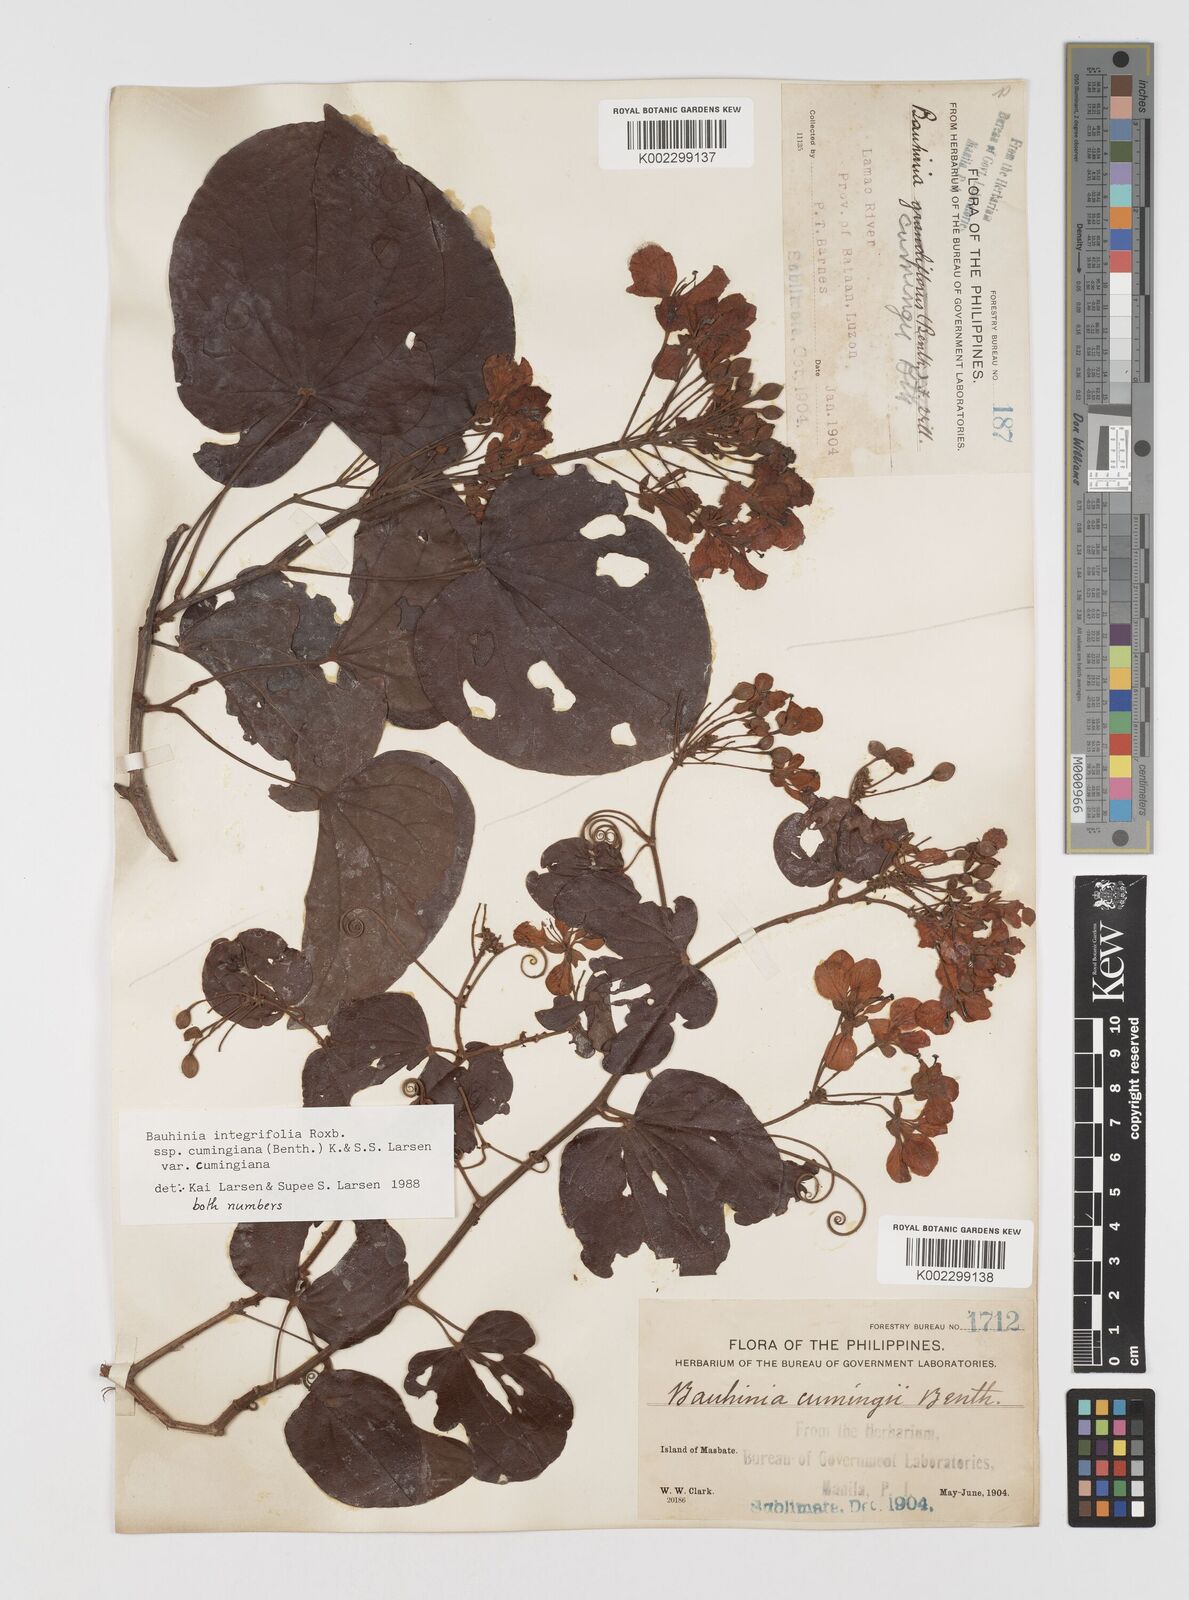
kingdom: Plantae
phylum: Tracheophyta
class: Magnoliopsida
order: Fabales
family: Fabaceae
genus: Phanera
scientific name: Phanera integrifolia
